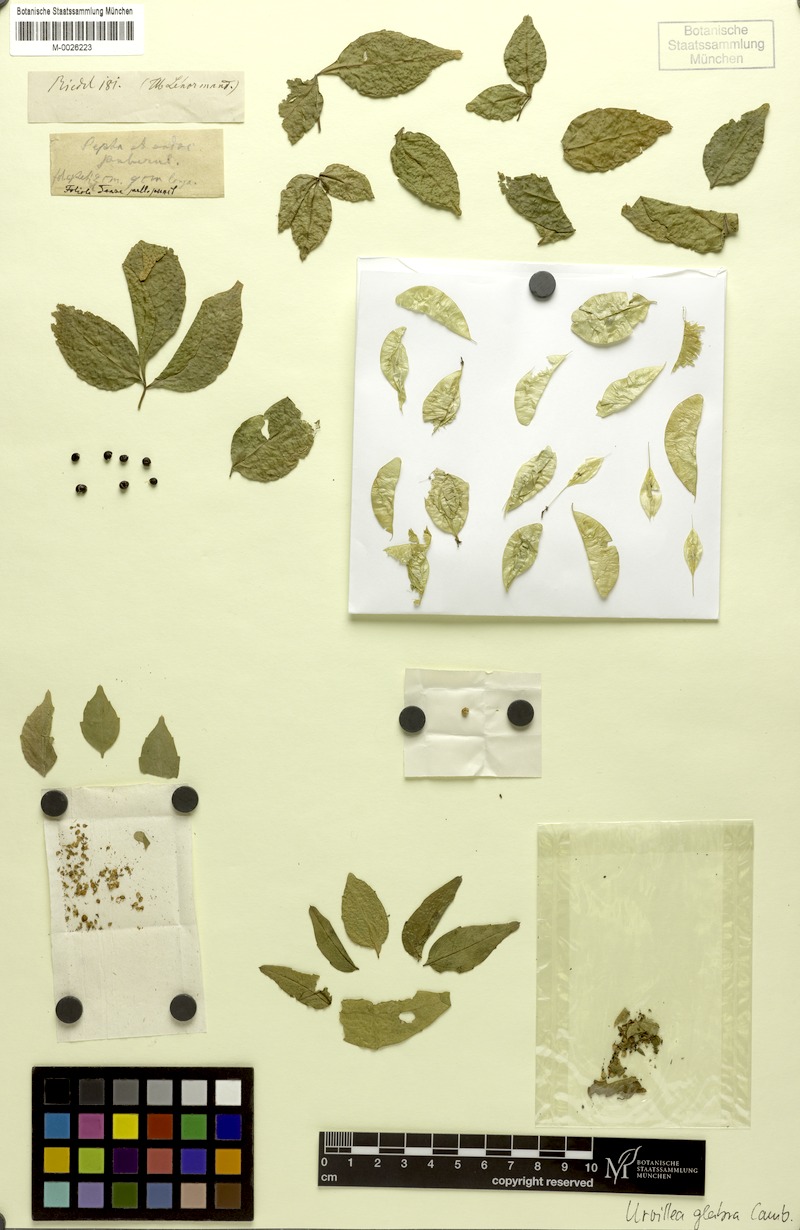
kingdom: Plantae
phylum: Tracheophyta
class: Magnoliopsida
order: Sapindales
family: Sapindaceae
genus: Urvillea
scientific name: Urvillea glabra
